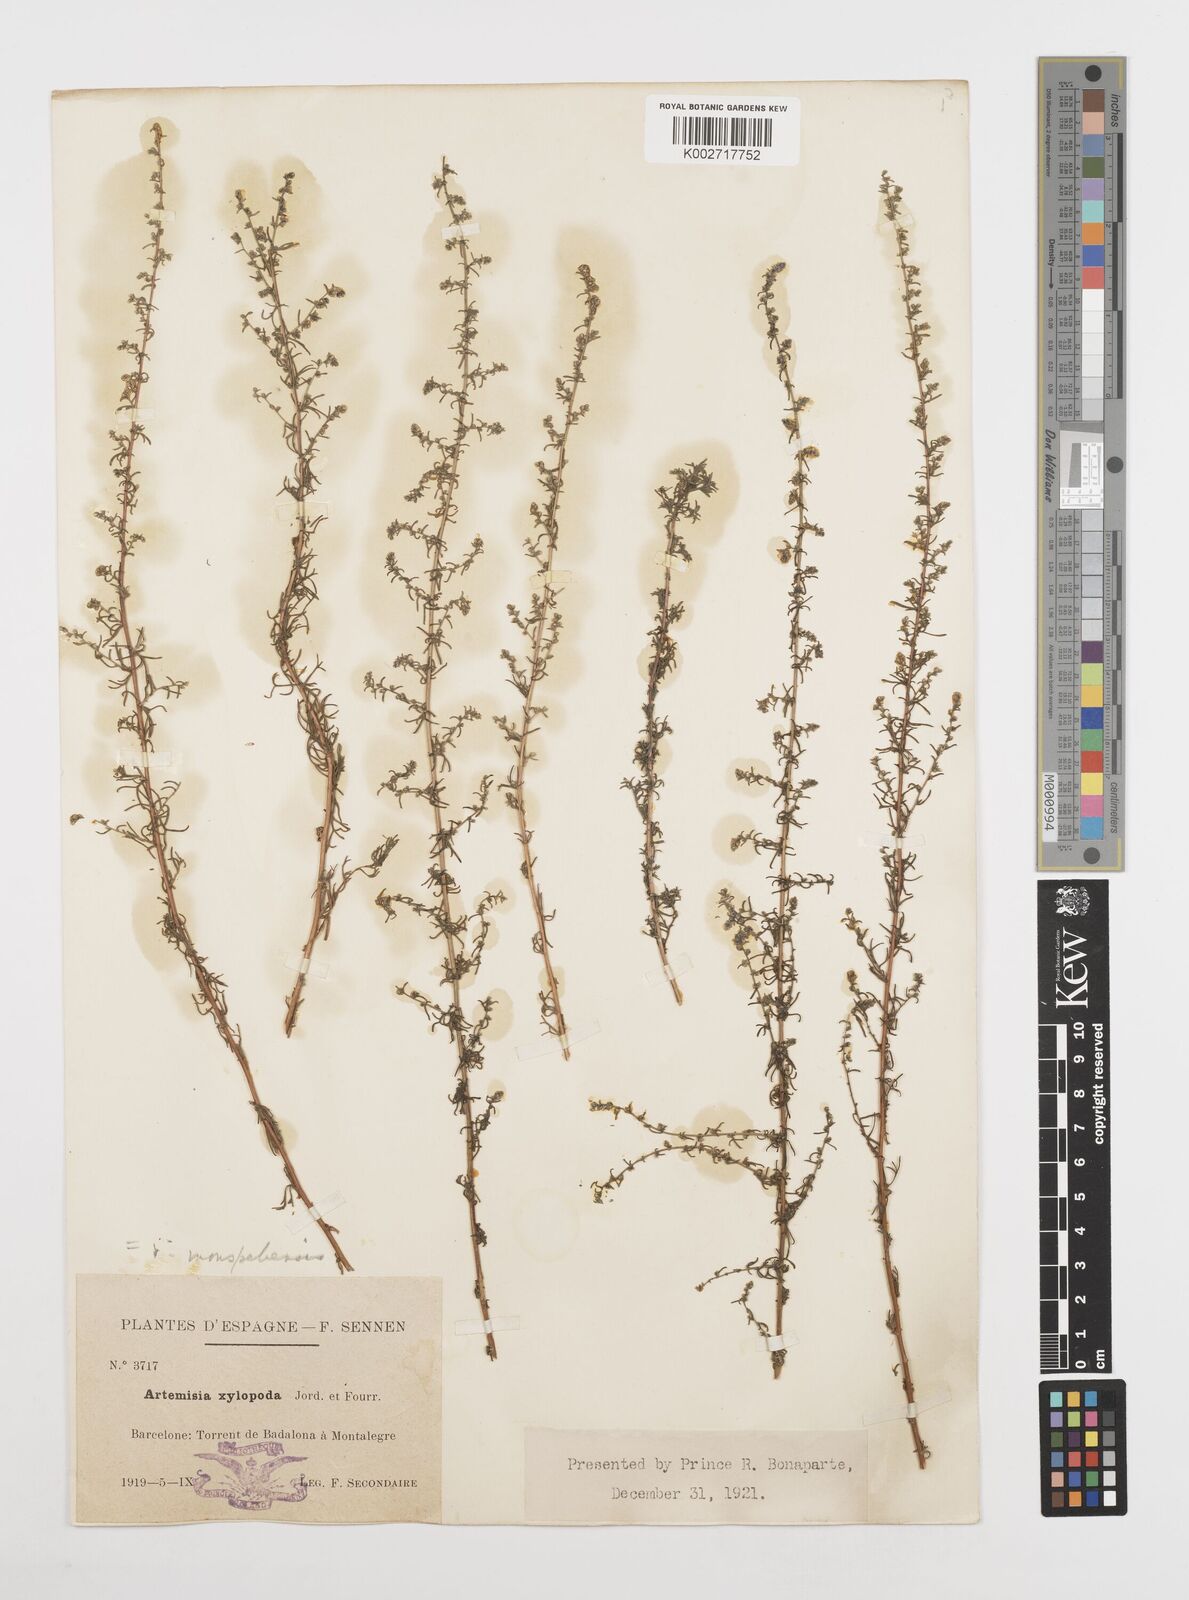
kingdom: Plantae
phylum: Tracheophyta
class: Magnoliopsida
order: Asterales
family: Asteraceae
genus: Artemisia
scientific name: Artemisia campestris
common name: Field wormwood
